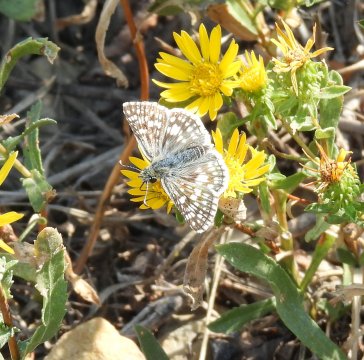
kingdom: Animalia
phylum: Arthropoda
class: Insecta
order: Lepidoptera
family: Hesperiidae
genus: Pyrgus
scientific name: Pyrgus communis
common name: Common Checkered-Skipper
